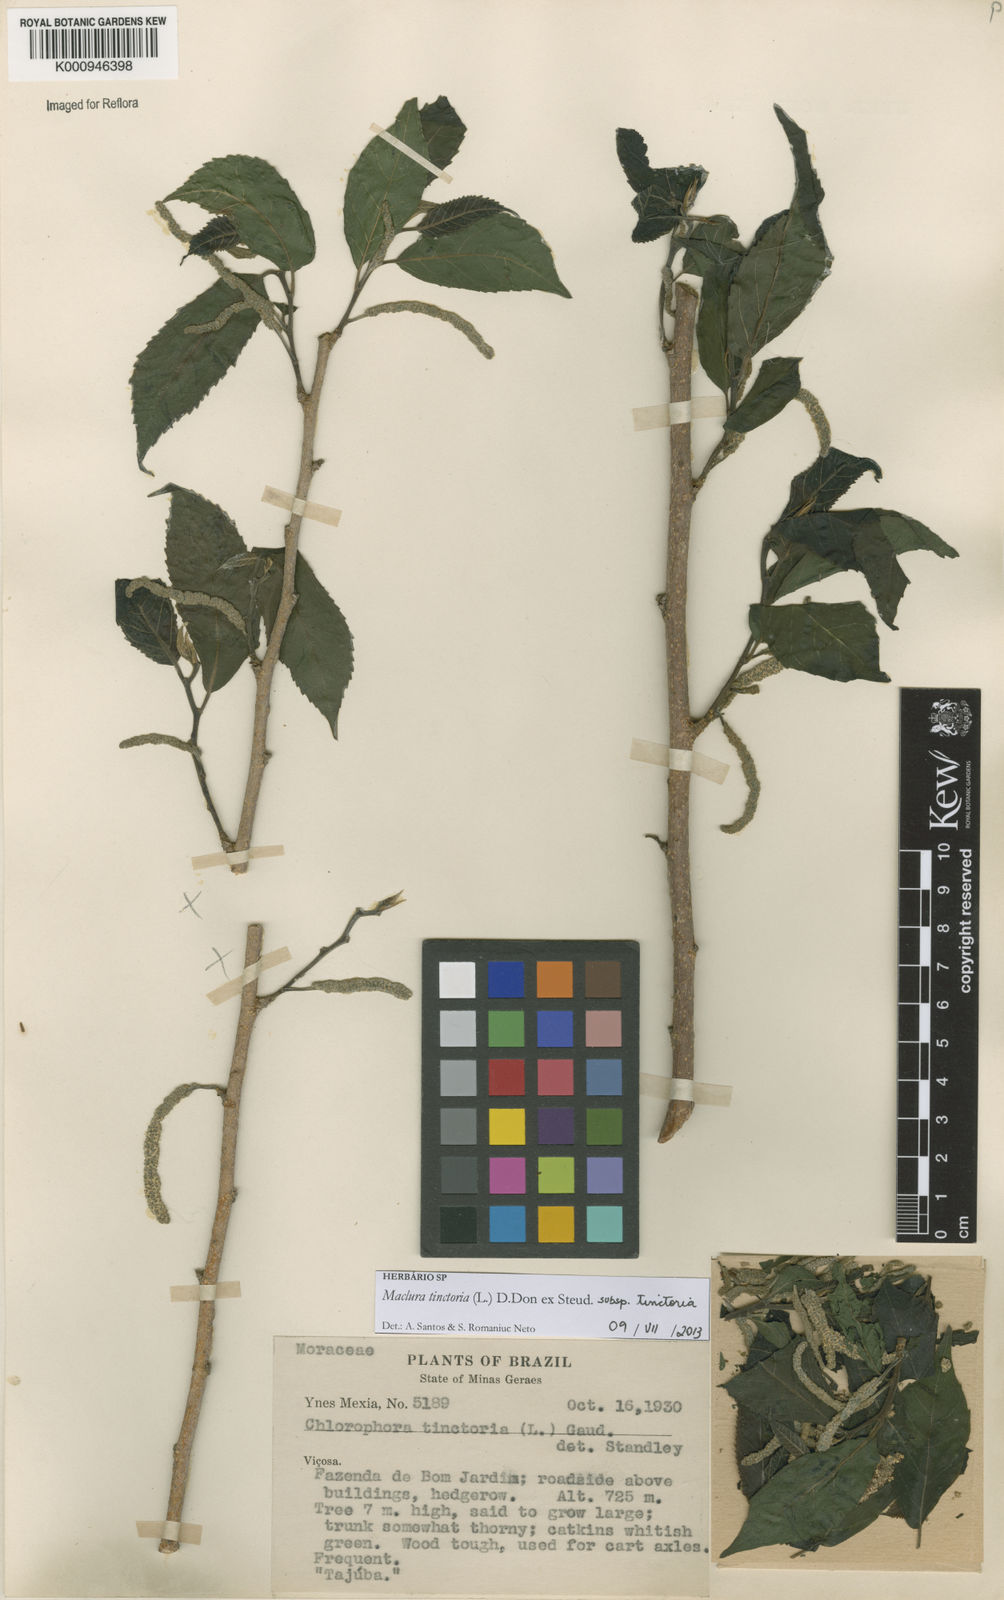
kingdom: Plantae
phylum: Tracheophyta
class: Magnoliopsida
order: Rosales
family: Moraceae
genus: Maclura
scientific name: Maclura
